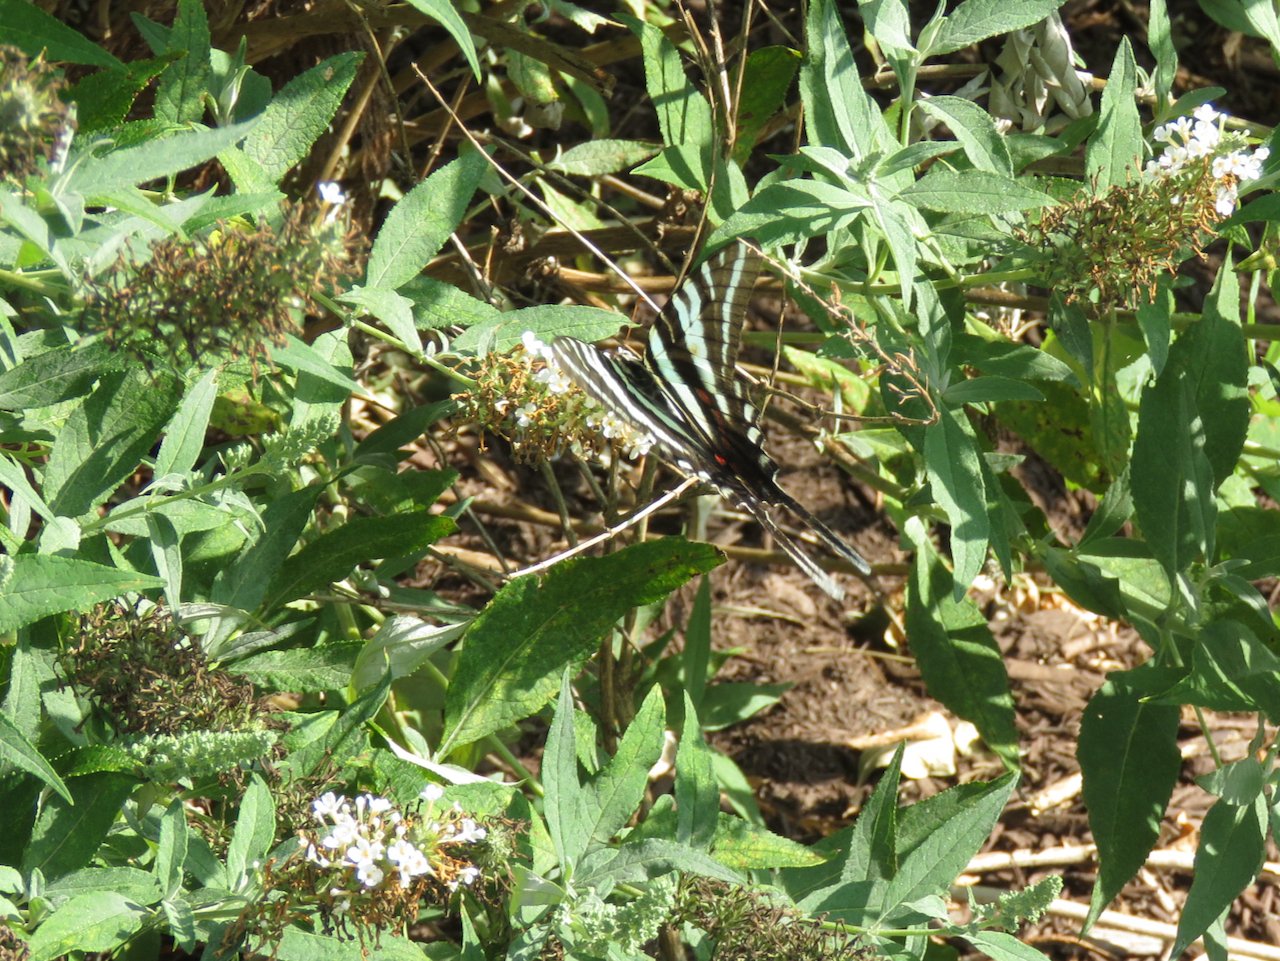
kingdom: Animalia
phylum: Arthropoda
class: Insecta
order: Lepidoptera
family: Papilionidae
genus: Protographium
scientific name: Protographium marcellus
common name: Zebra Swallowtail
